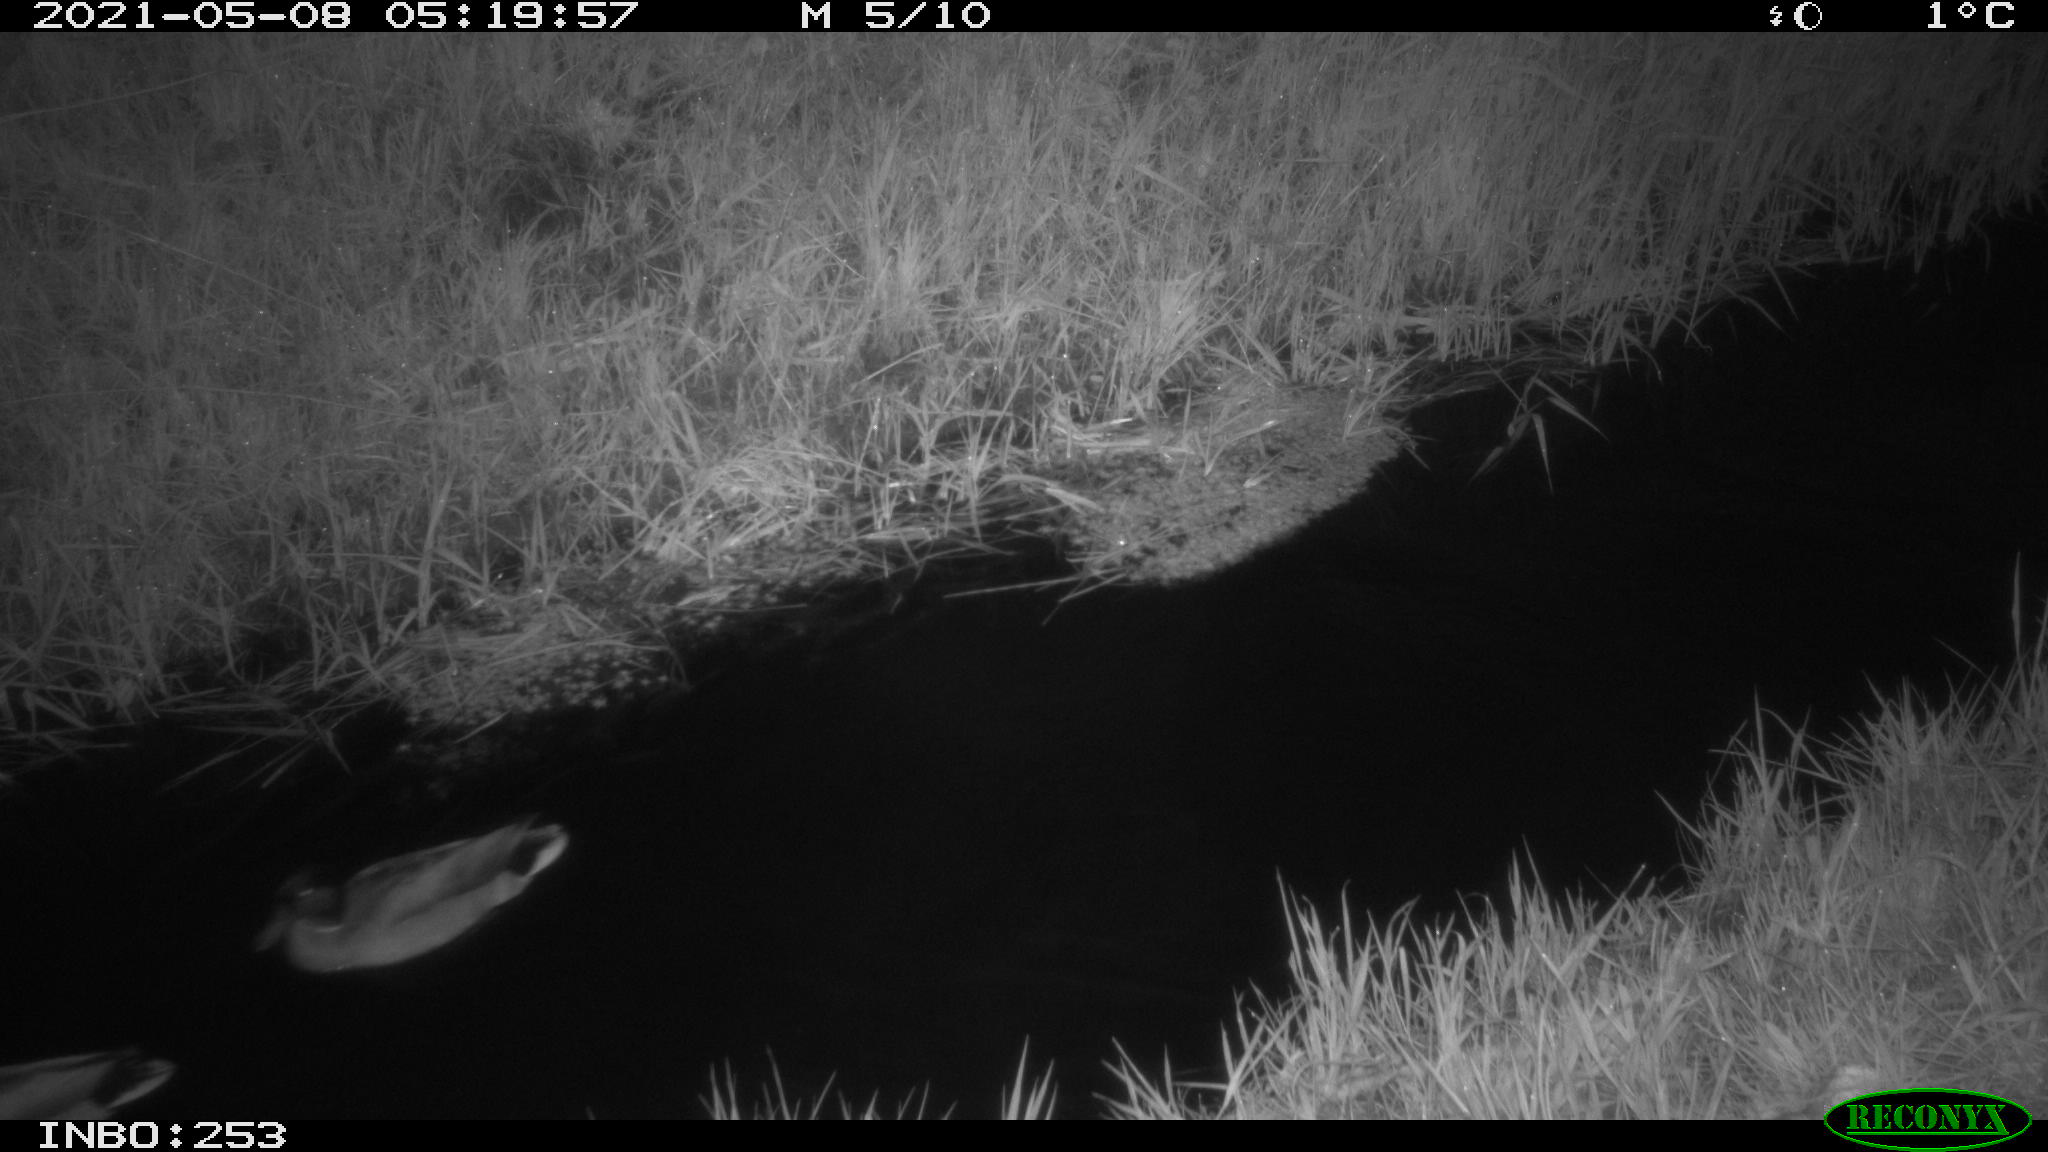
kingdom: Animalia
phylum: Chordata
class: Aves
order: Anseriformes
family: Anatidae
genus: Anas
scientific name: Anas platyrhynchos
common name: Mallard
